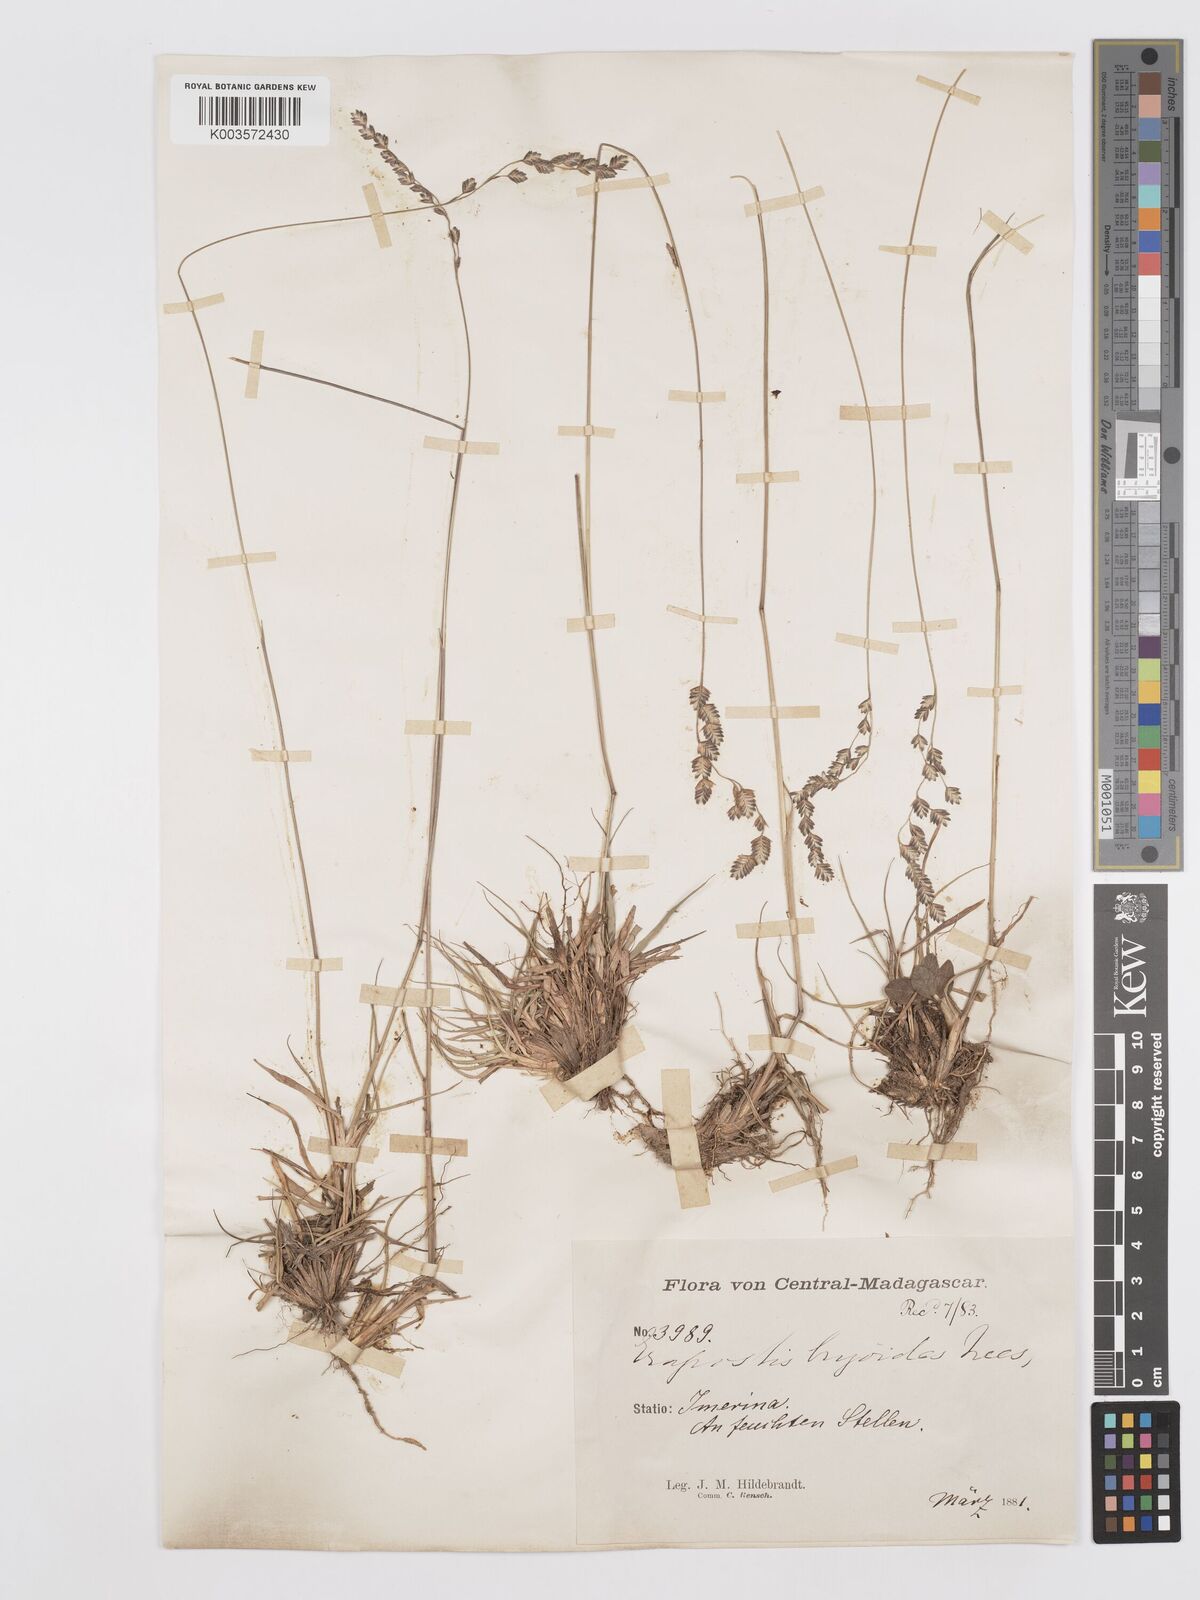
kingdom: Plantae
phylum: Tracheophyta
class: Liliopsida
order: Poales
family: Poaceae
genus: Eragrostis
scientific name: Eragrostis capensis
